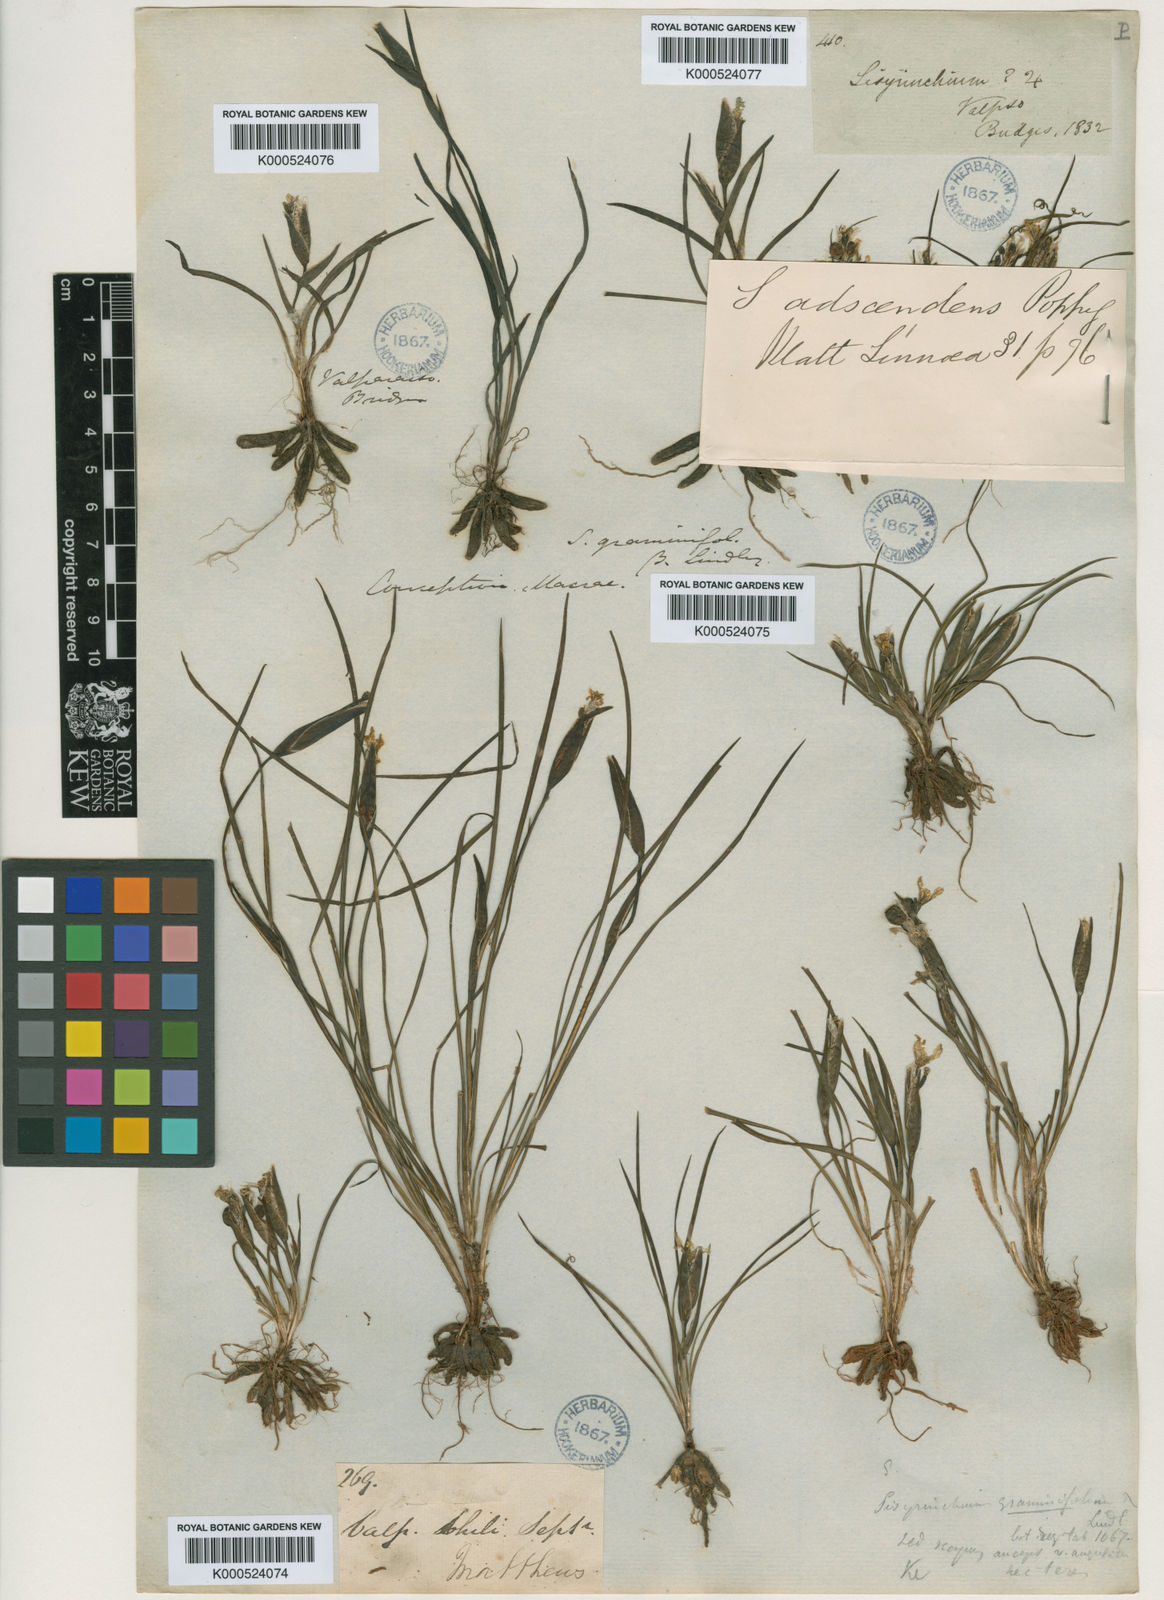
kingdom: Plantae
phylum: Tracheophyta
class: Liliopsida
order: Asparagales
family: Iridaceae
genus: Sisyrinchium
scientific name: Sisyrinchium graminifolium
